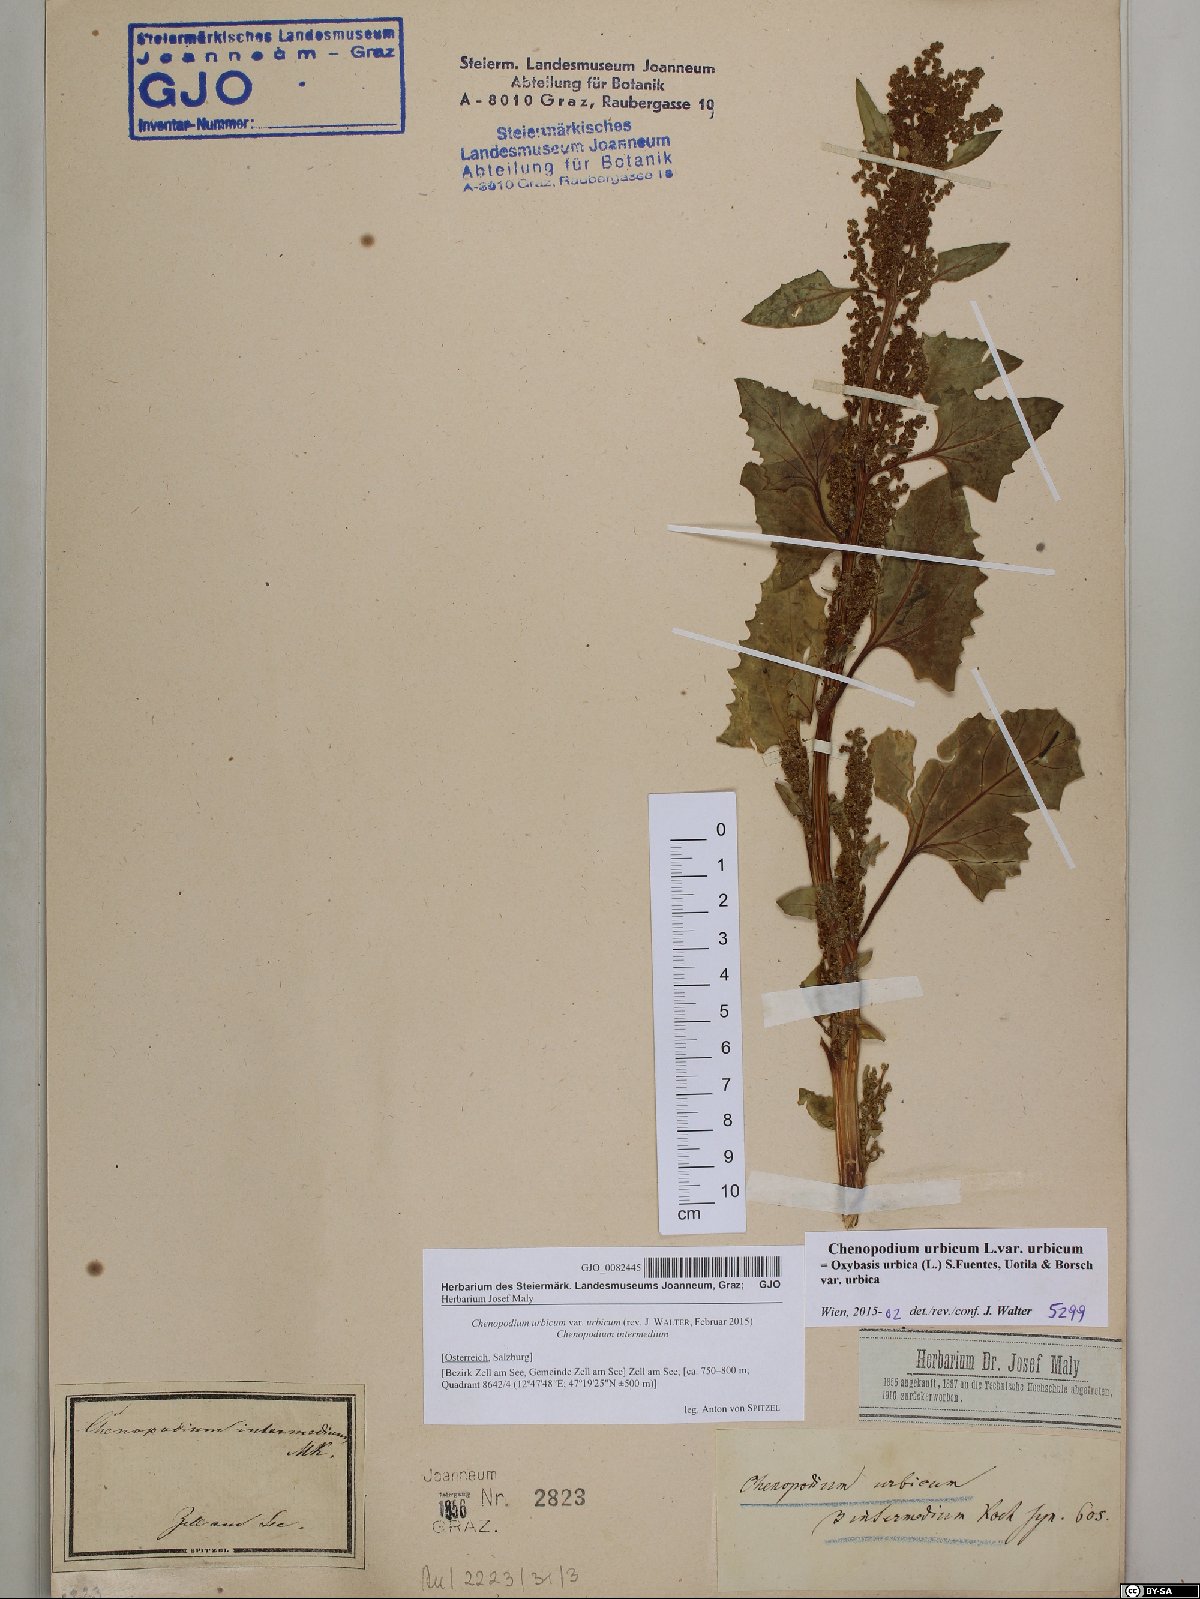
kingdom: Plantae
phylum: Tracheophyta
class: Magnoliopsida
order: Caryophyllales
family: Amaranthaceae
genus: Oxybasis
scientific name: Oxybasis urbica
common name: City goosefoot
